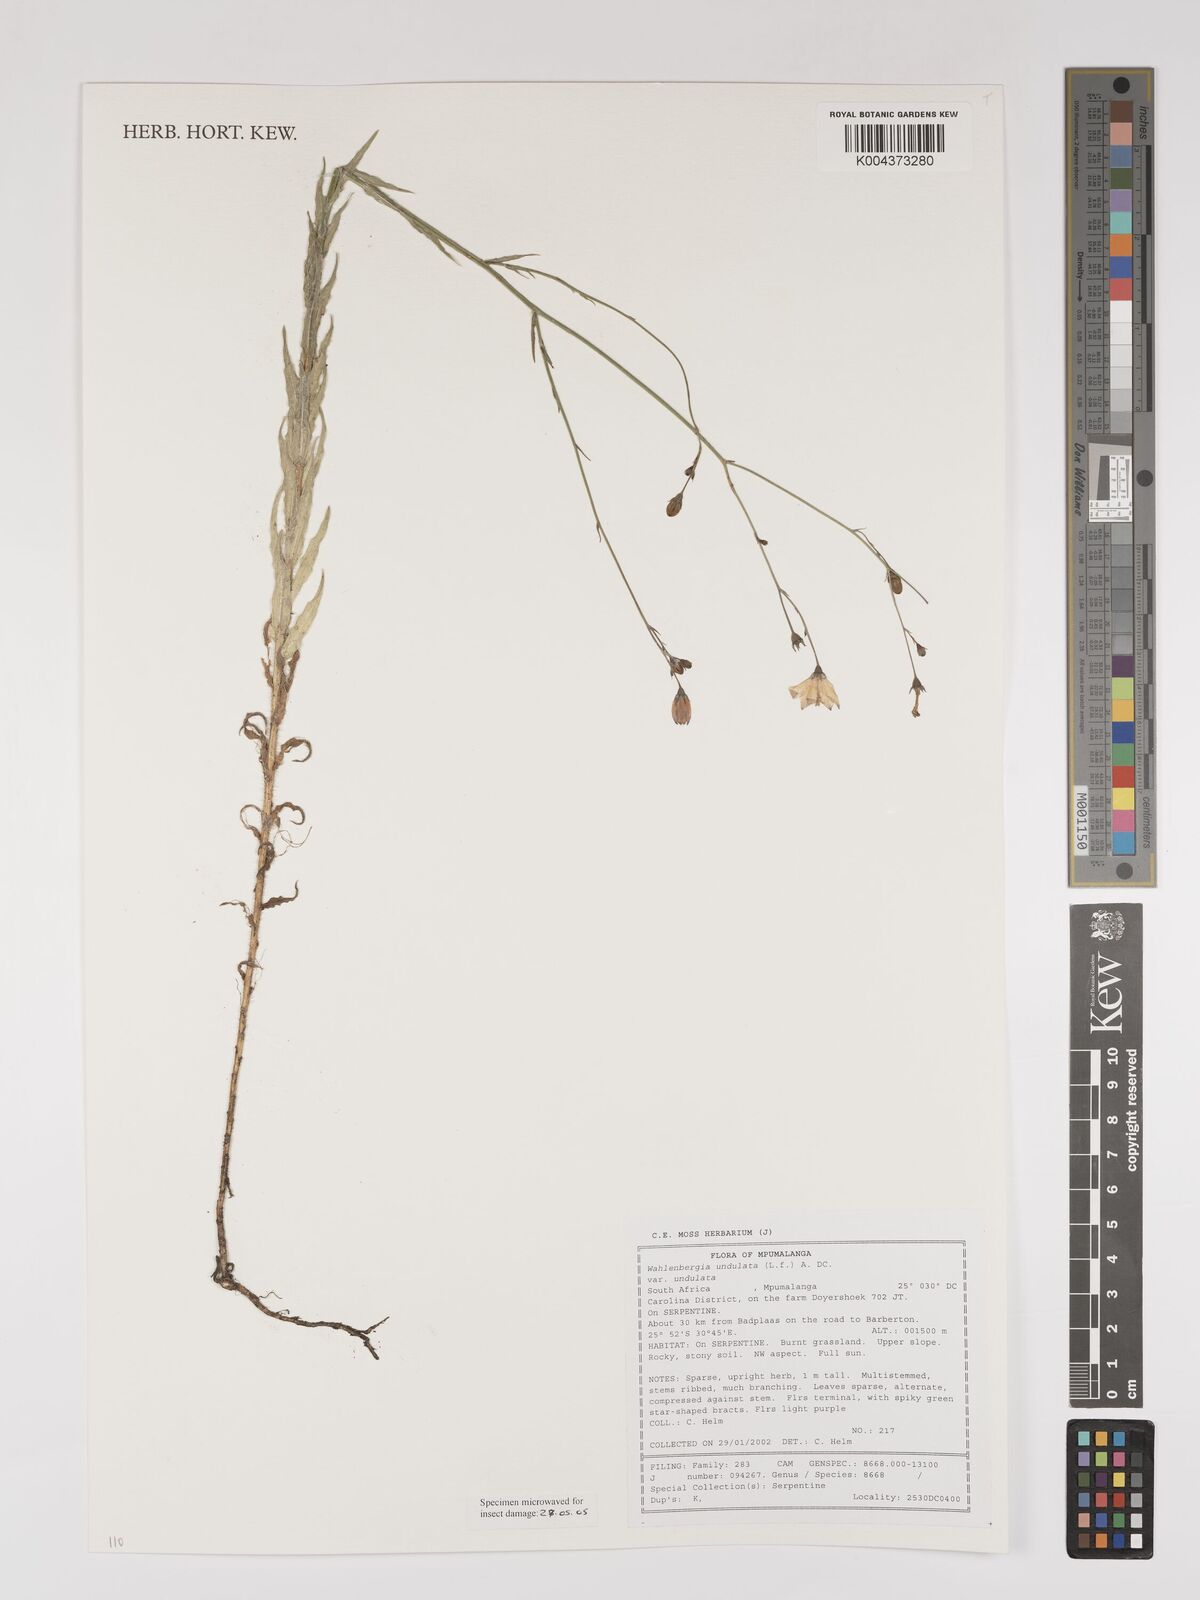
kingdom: Plantae
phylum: Tracheophyta
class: Magnoliopsida
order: Asterales
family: Campanulaceae
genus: Wahlenbergia
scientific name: Wahlenbergia undulata
